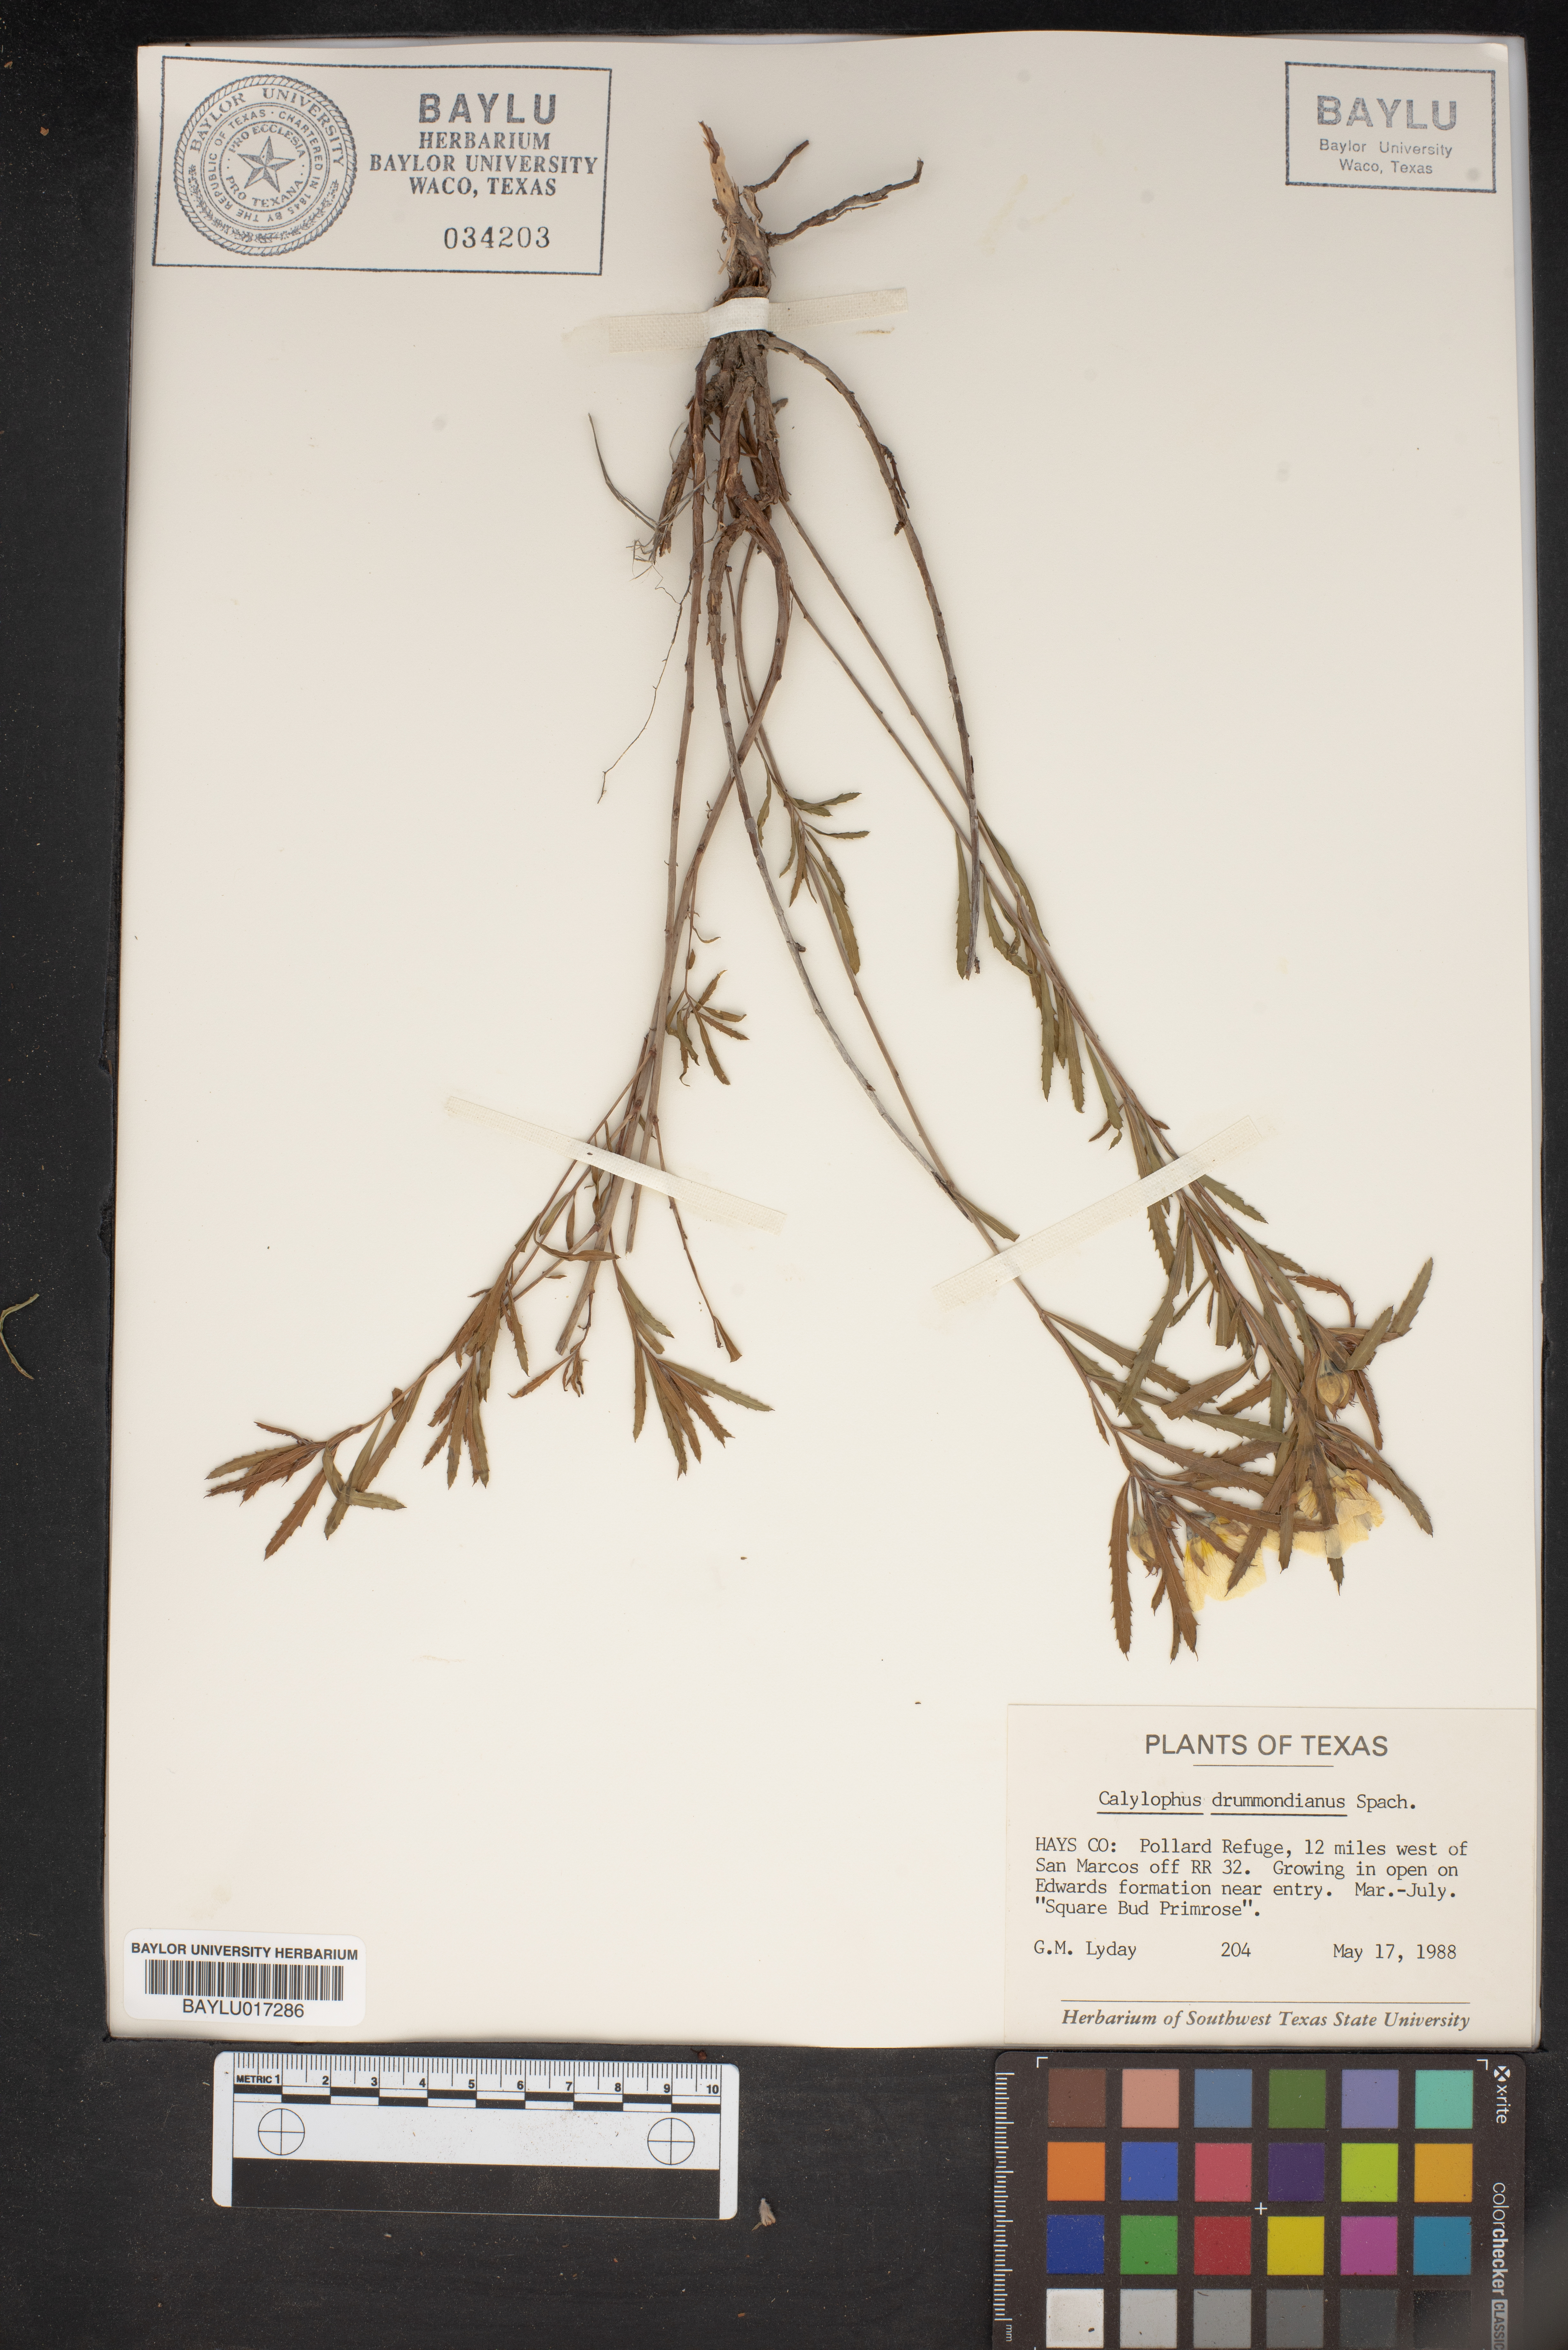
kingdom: Plantae
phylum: Tracheophyta
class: Magnoliopsida
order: Myrtales
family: Onagraceae
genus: Oenothera
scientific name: Oenothera serrulata
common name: Half-shrub calylophus
